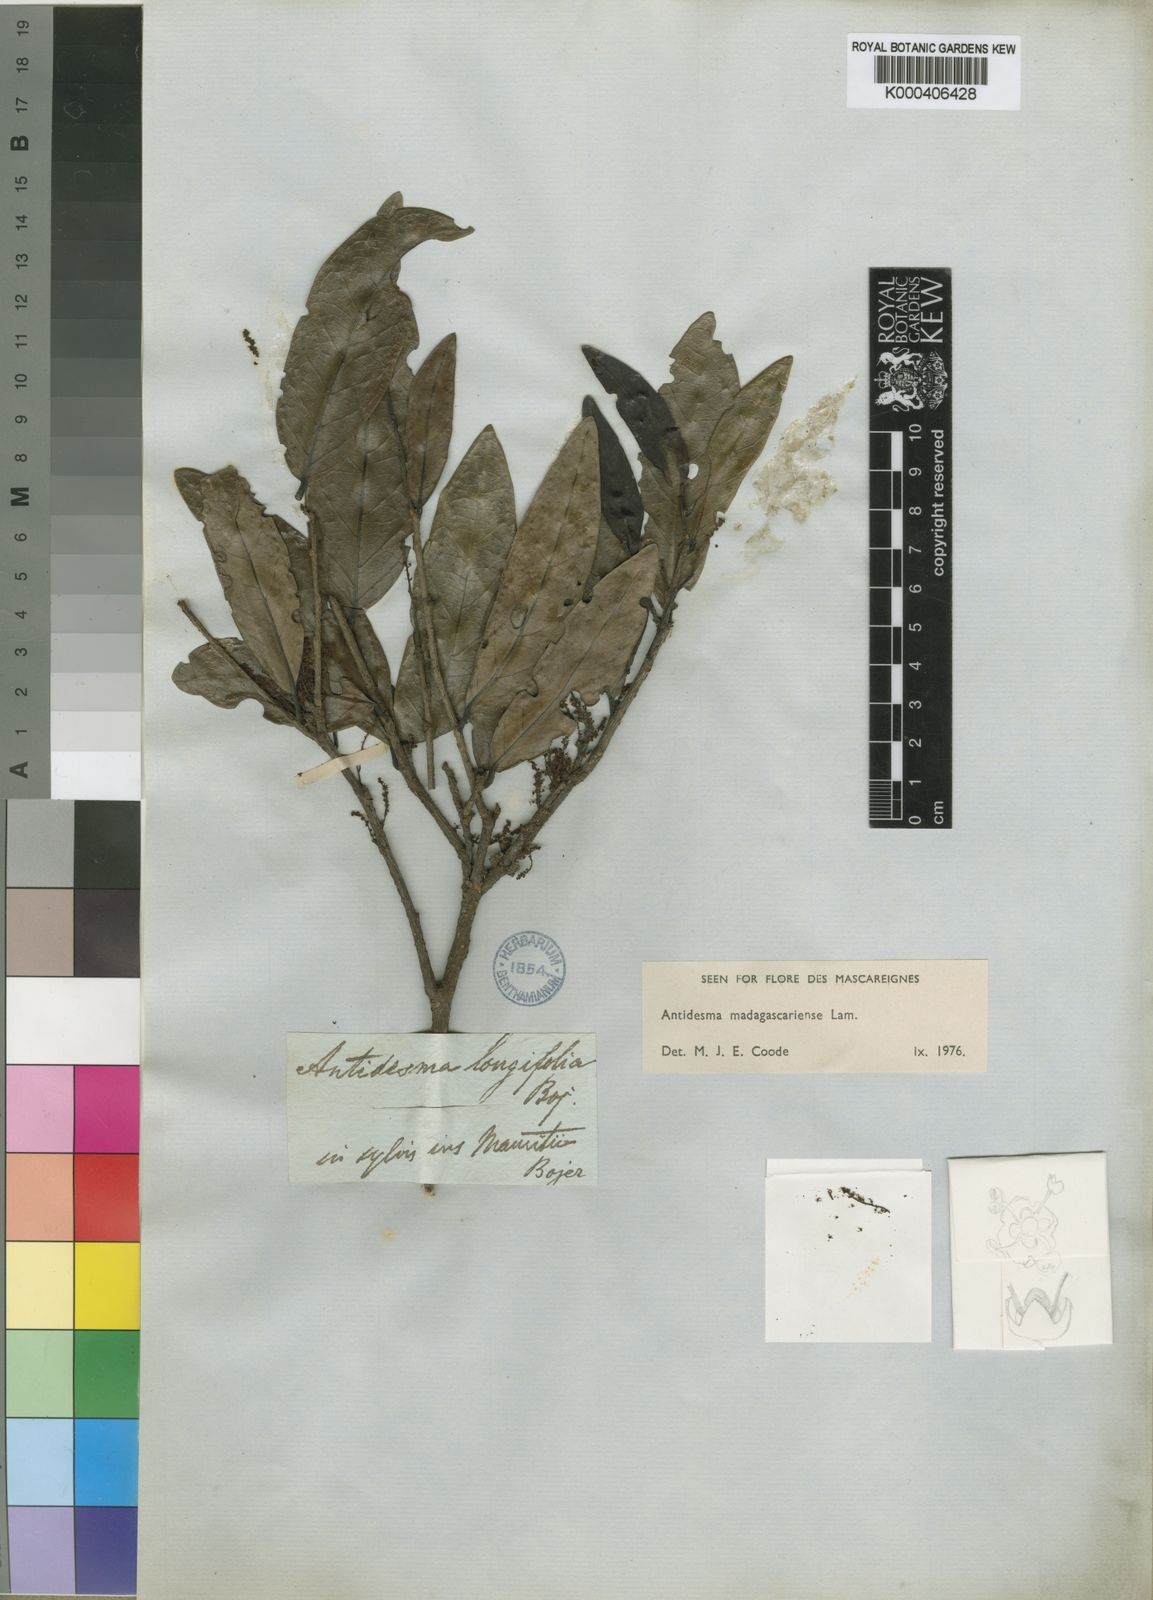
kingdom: Plantae
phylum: Tracheophyta
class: Magnoliopsida
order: Malpighiales
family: Phyllanthaceae
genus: Antidesma
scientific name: Antidesma madagascariense
